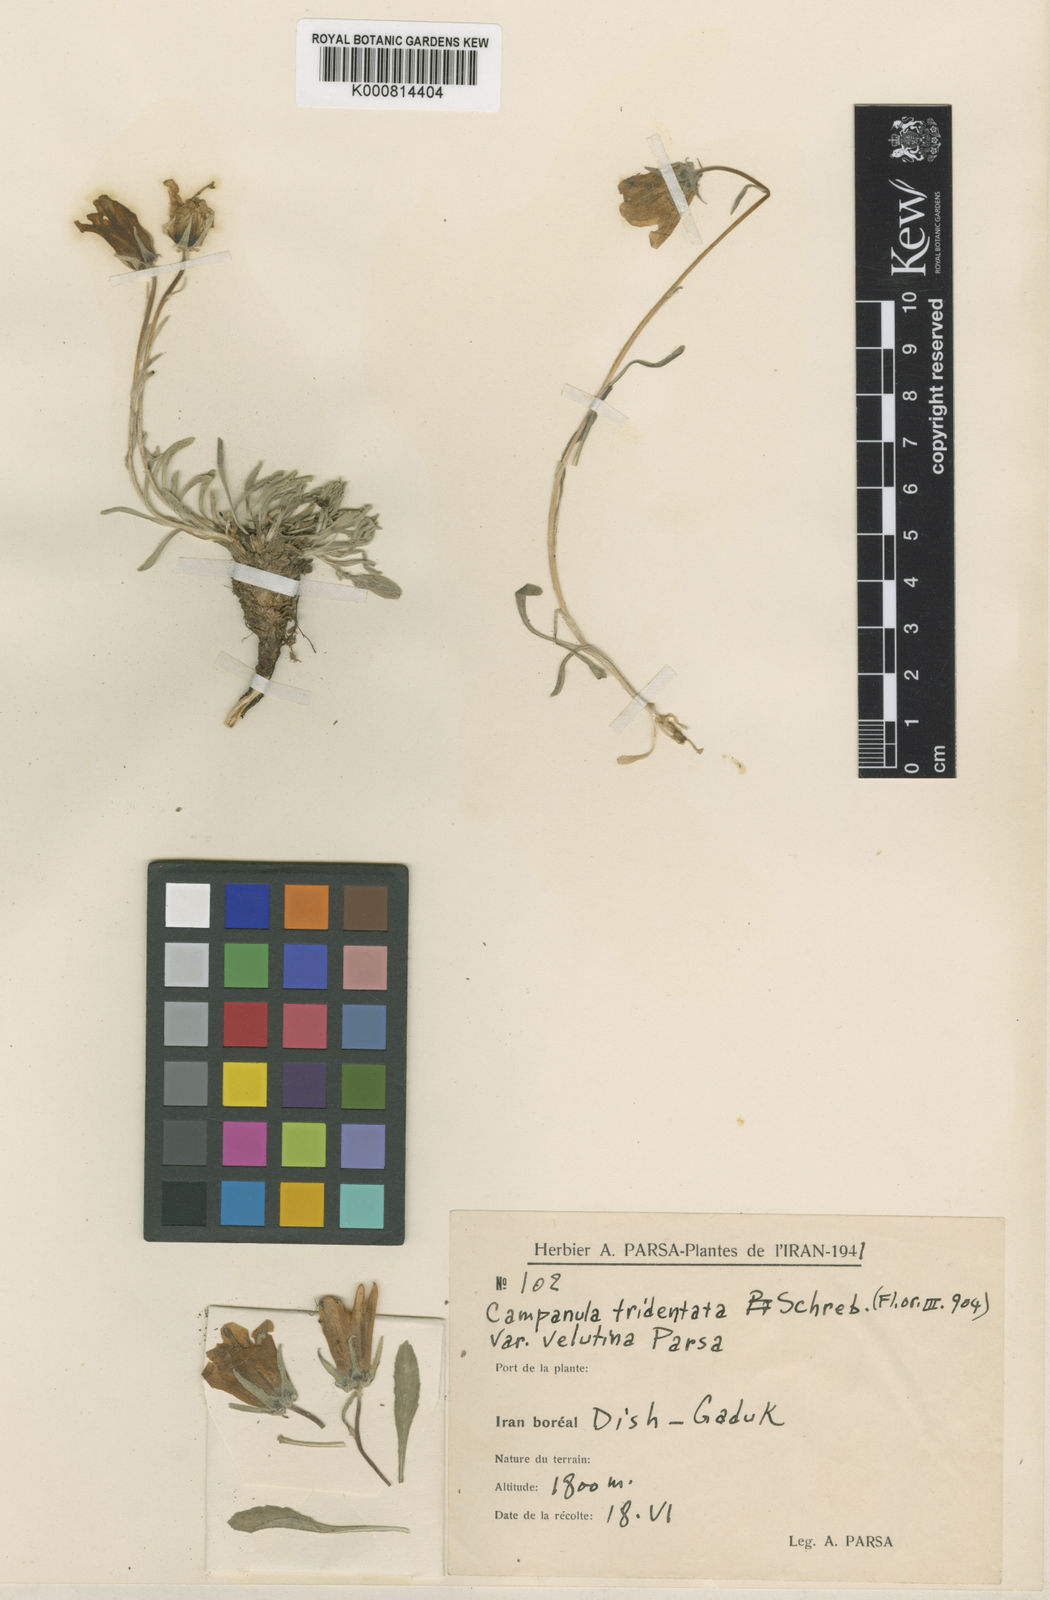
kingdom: Plantae
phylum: Tracheophyta
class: Magnoliopsida
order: Asterales
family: Campanulaceae
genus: Campanula
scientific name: Campanula tridentata
